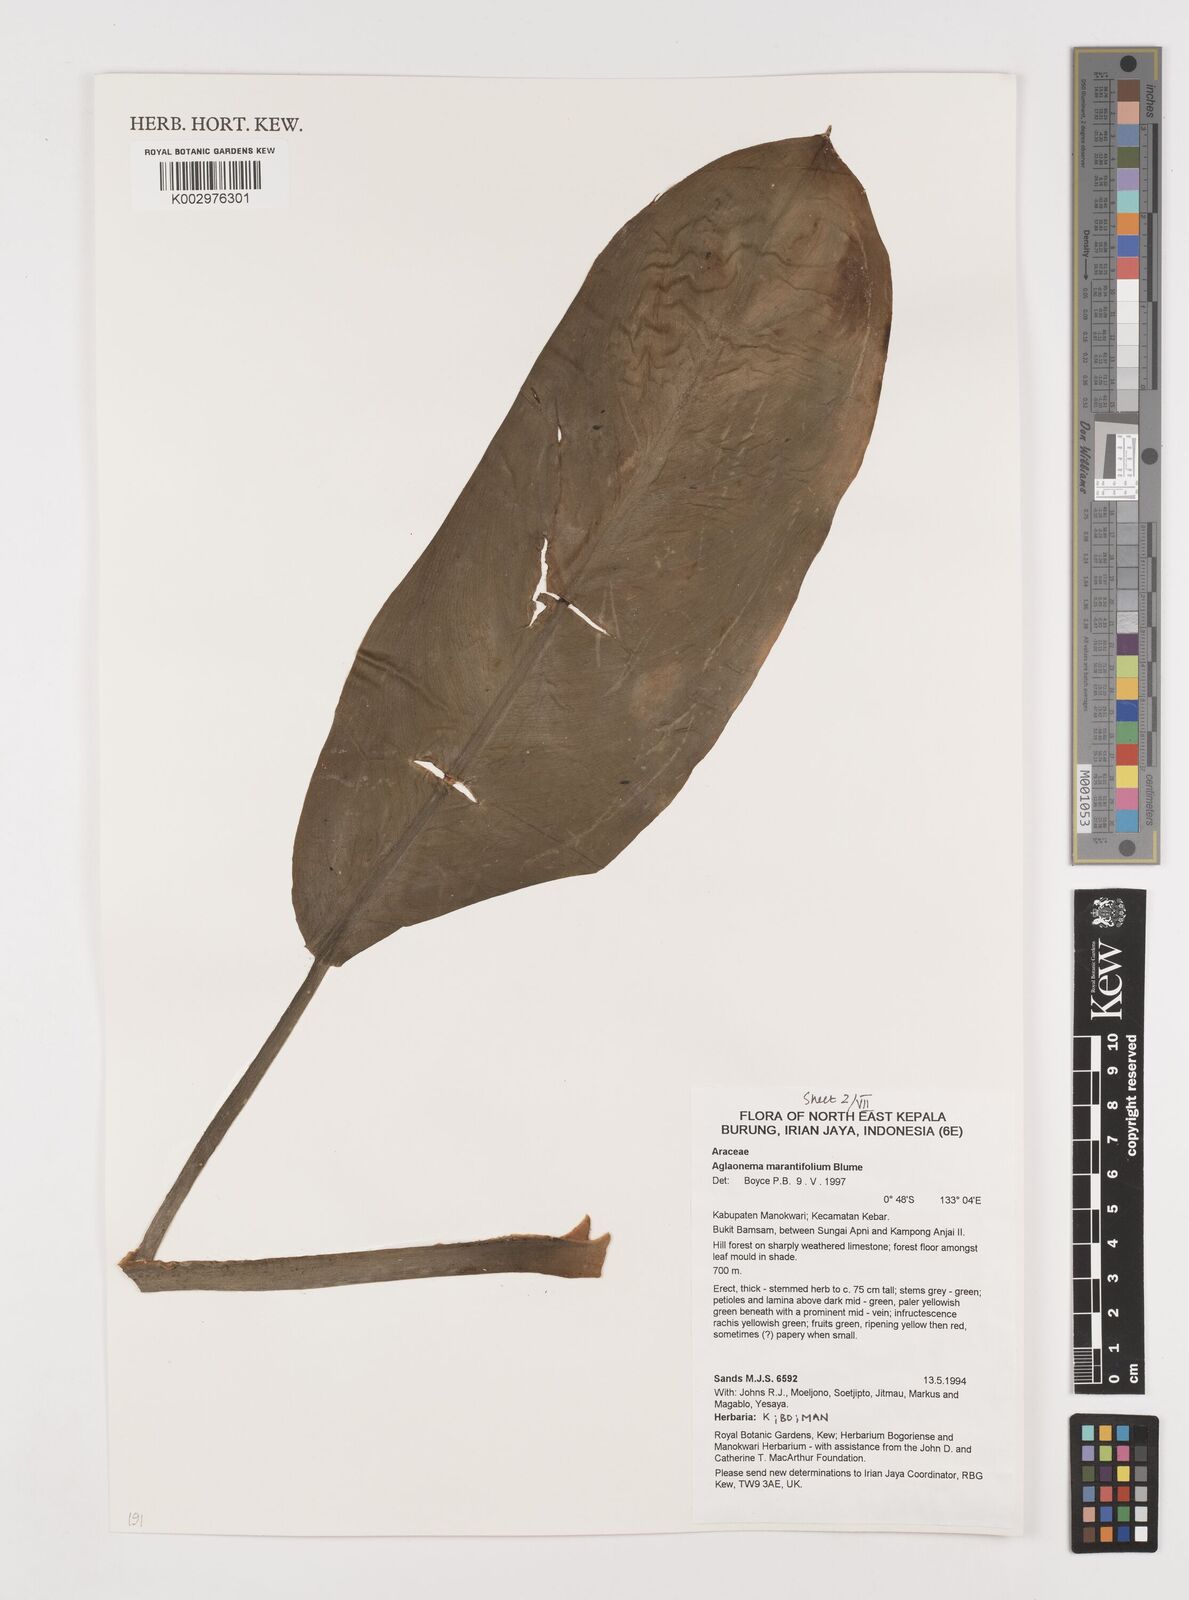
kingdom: Plantae
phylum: Tracheophyta
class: Liliopsida
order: Alismatales
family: Araceae
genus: Aglaonema
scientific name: Aglaonema marantifolium
